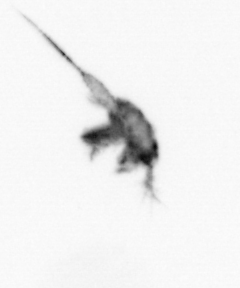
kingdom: Animalia
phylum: Arthropoda
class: Copepoda
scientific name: Copepoda
